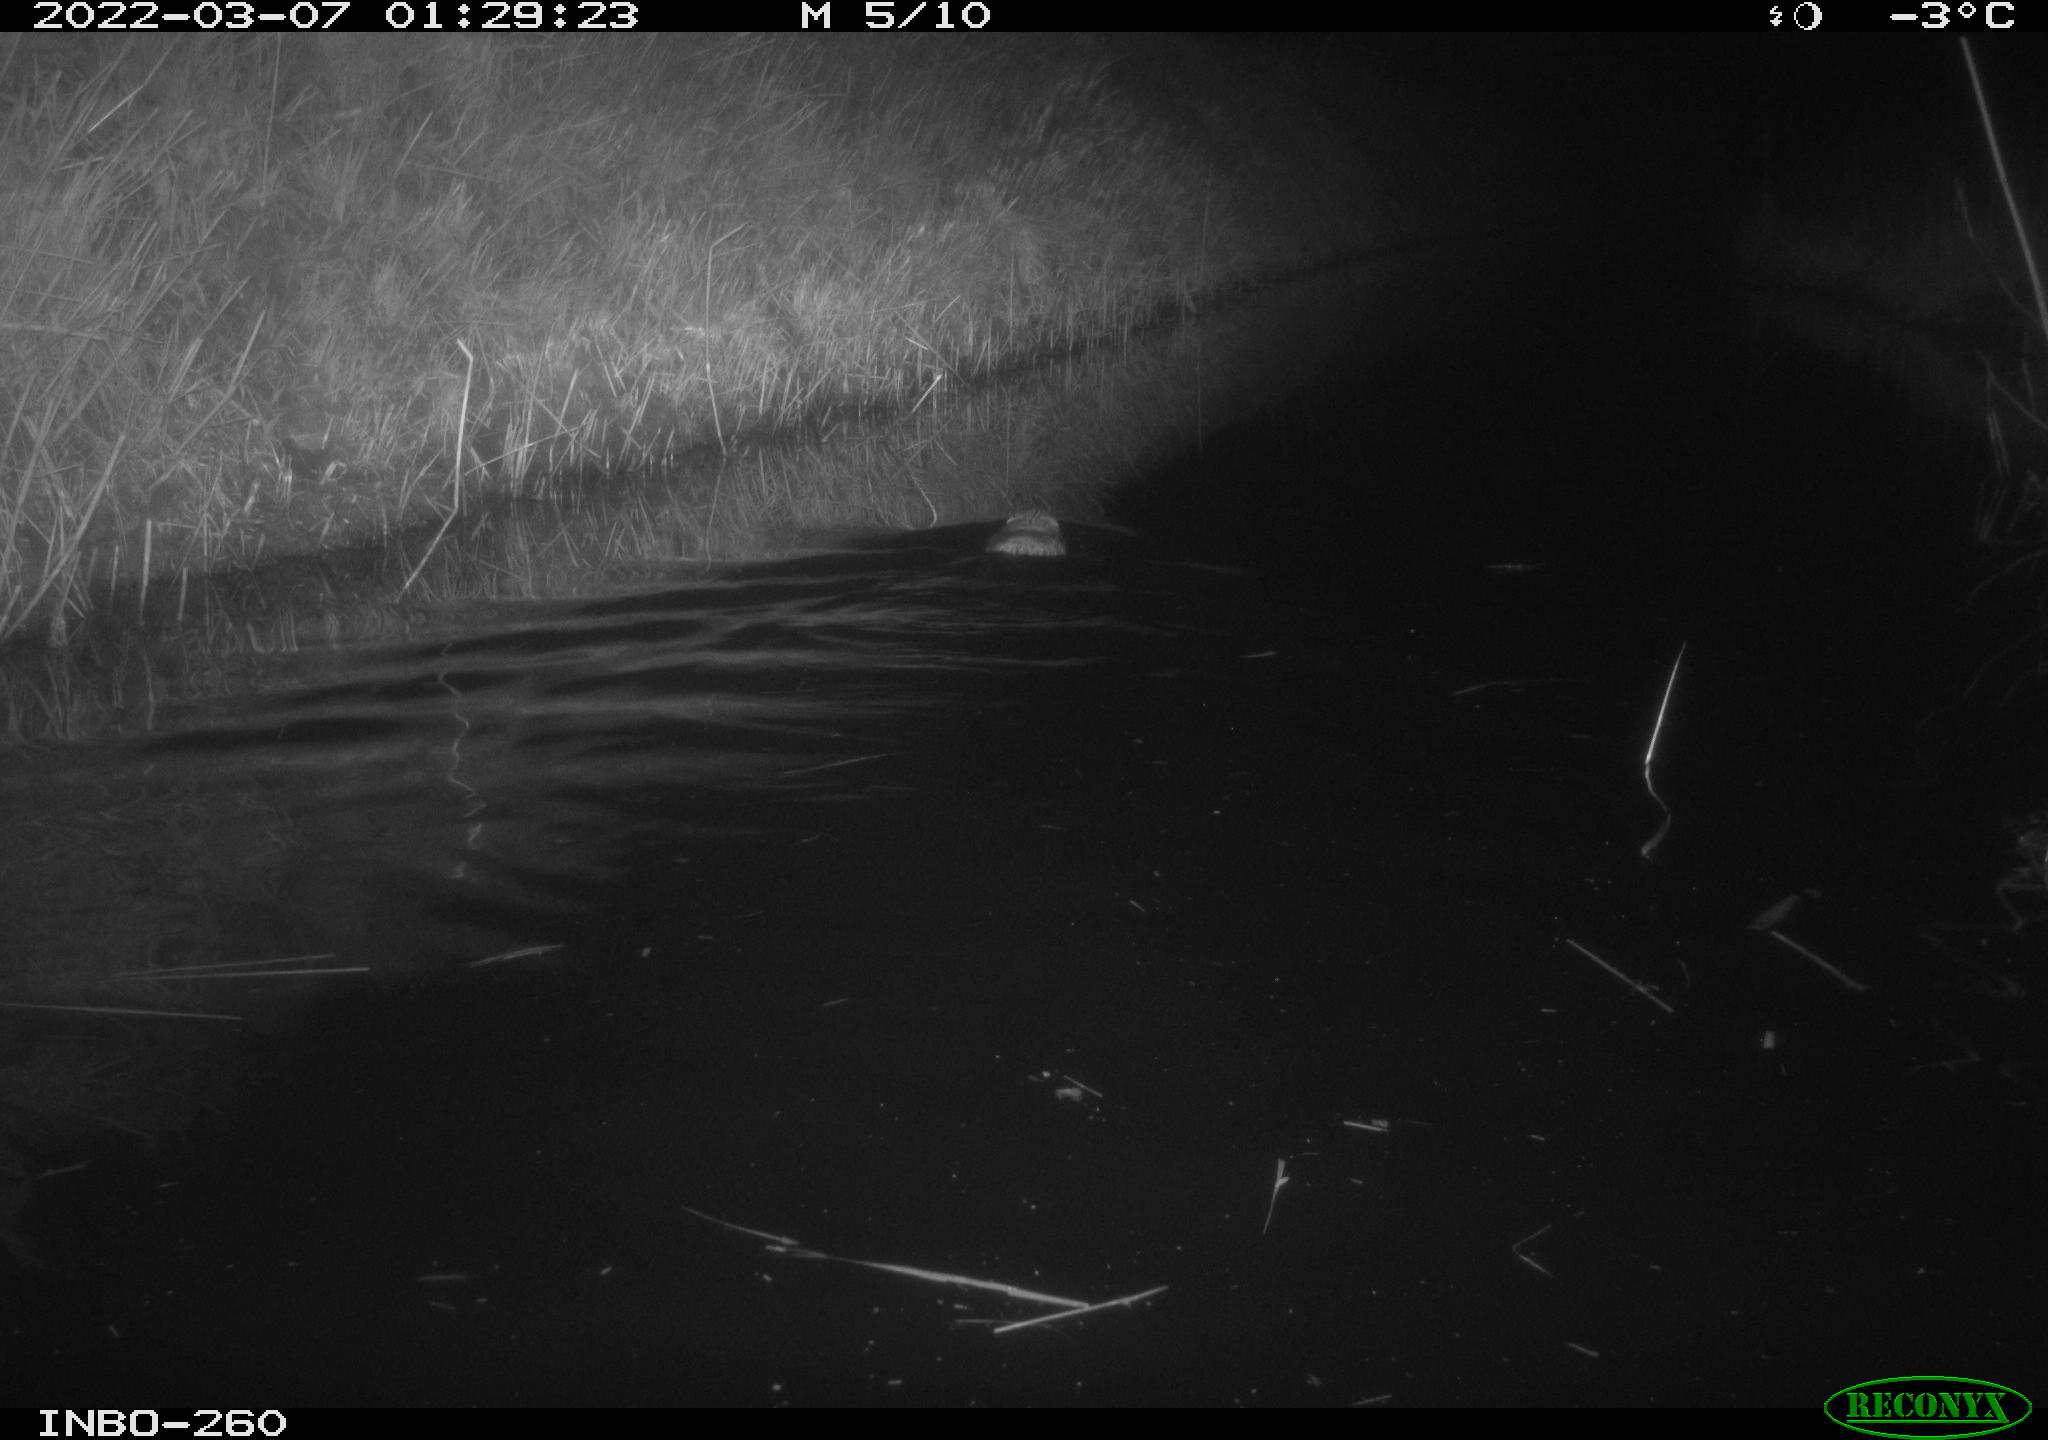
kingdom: Animalia
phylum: Chordata
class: Mammalia
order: Rodentia
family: Cricetidae
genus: Ondatra
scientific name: Ondatra zibethicus
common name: Muskrat
